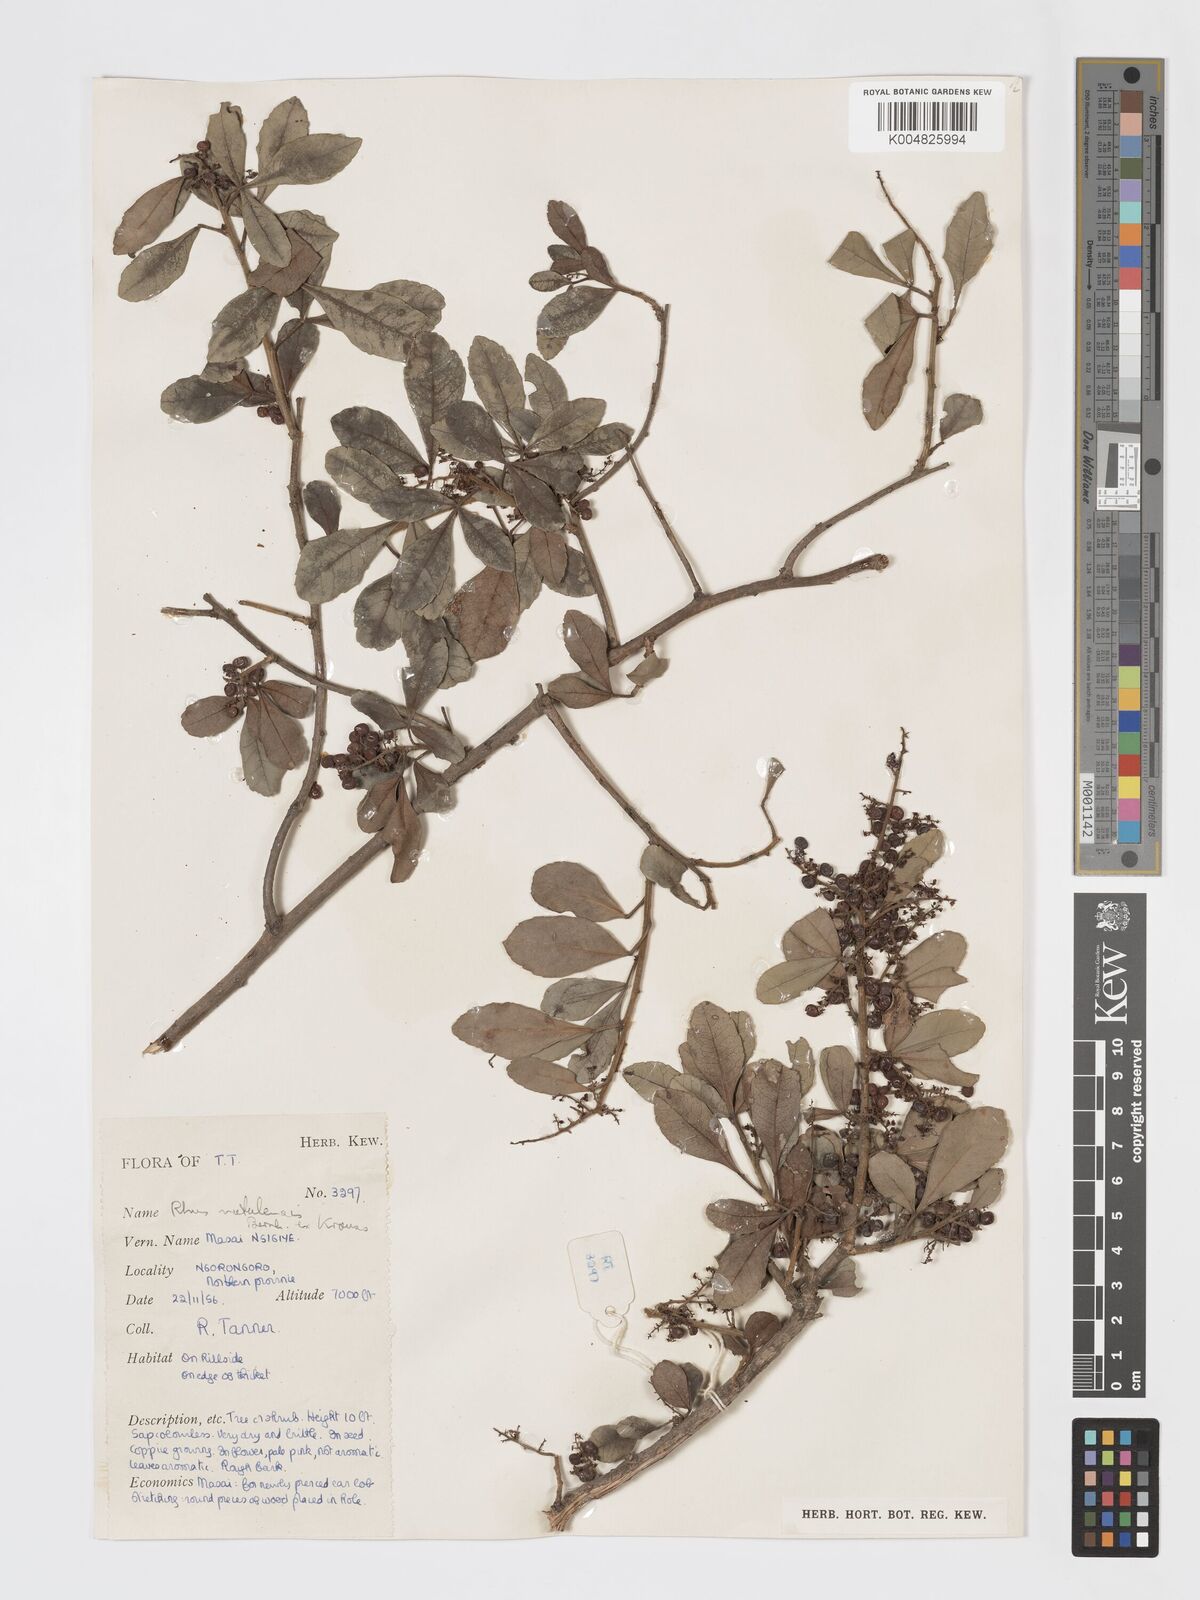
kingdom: Plantae
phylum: Tracheophyta
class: Magnoliopsida
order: Sapindales
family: Anacardiaceae
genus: Searsia
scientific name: Searsia natalensis
